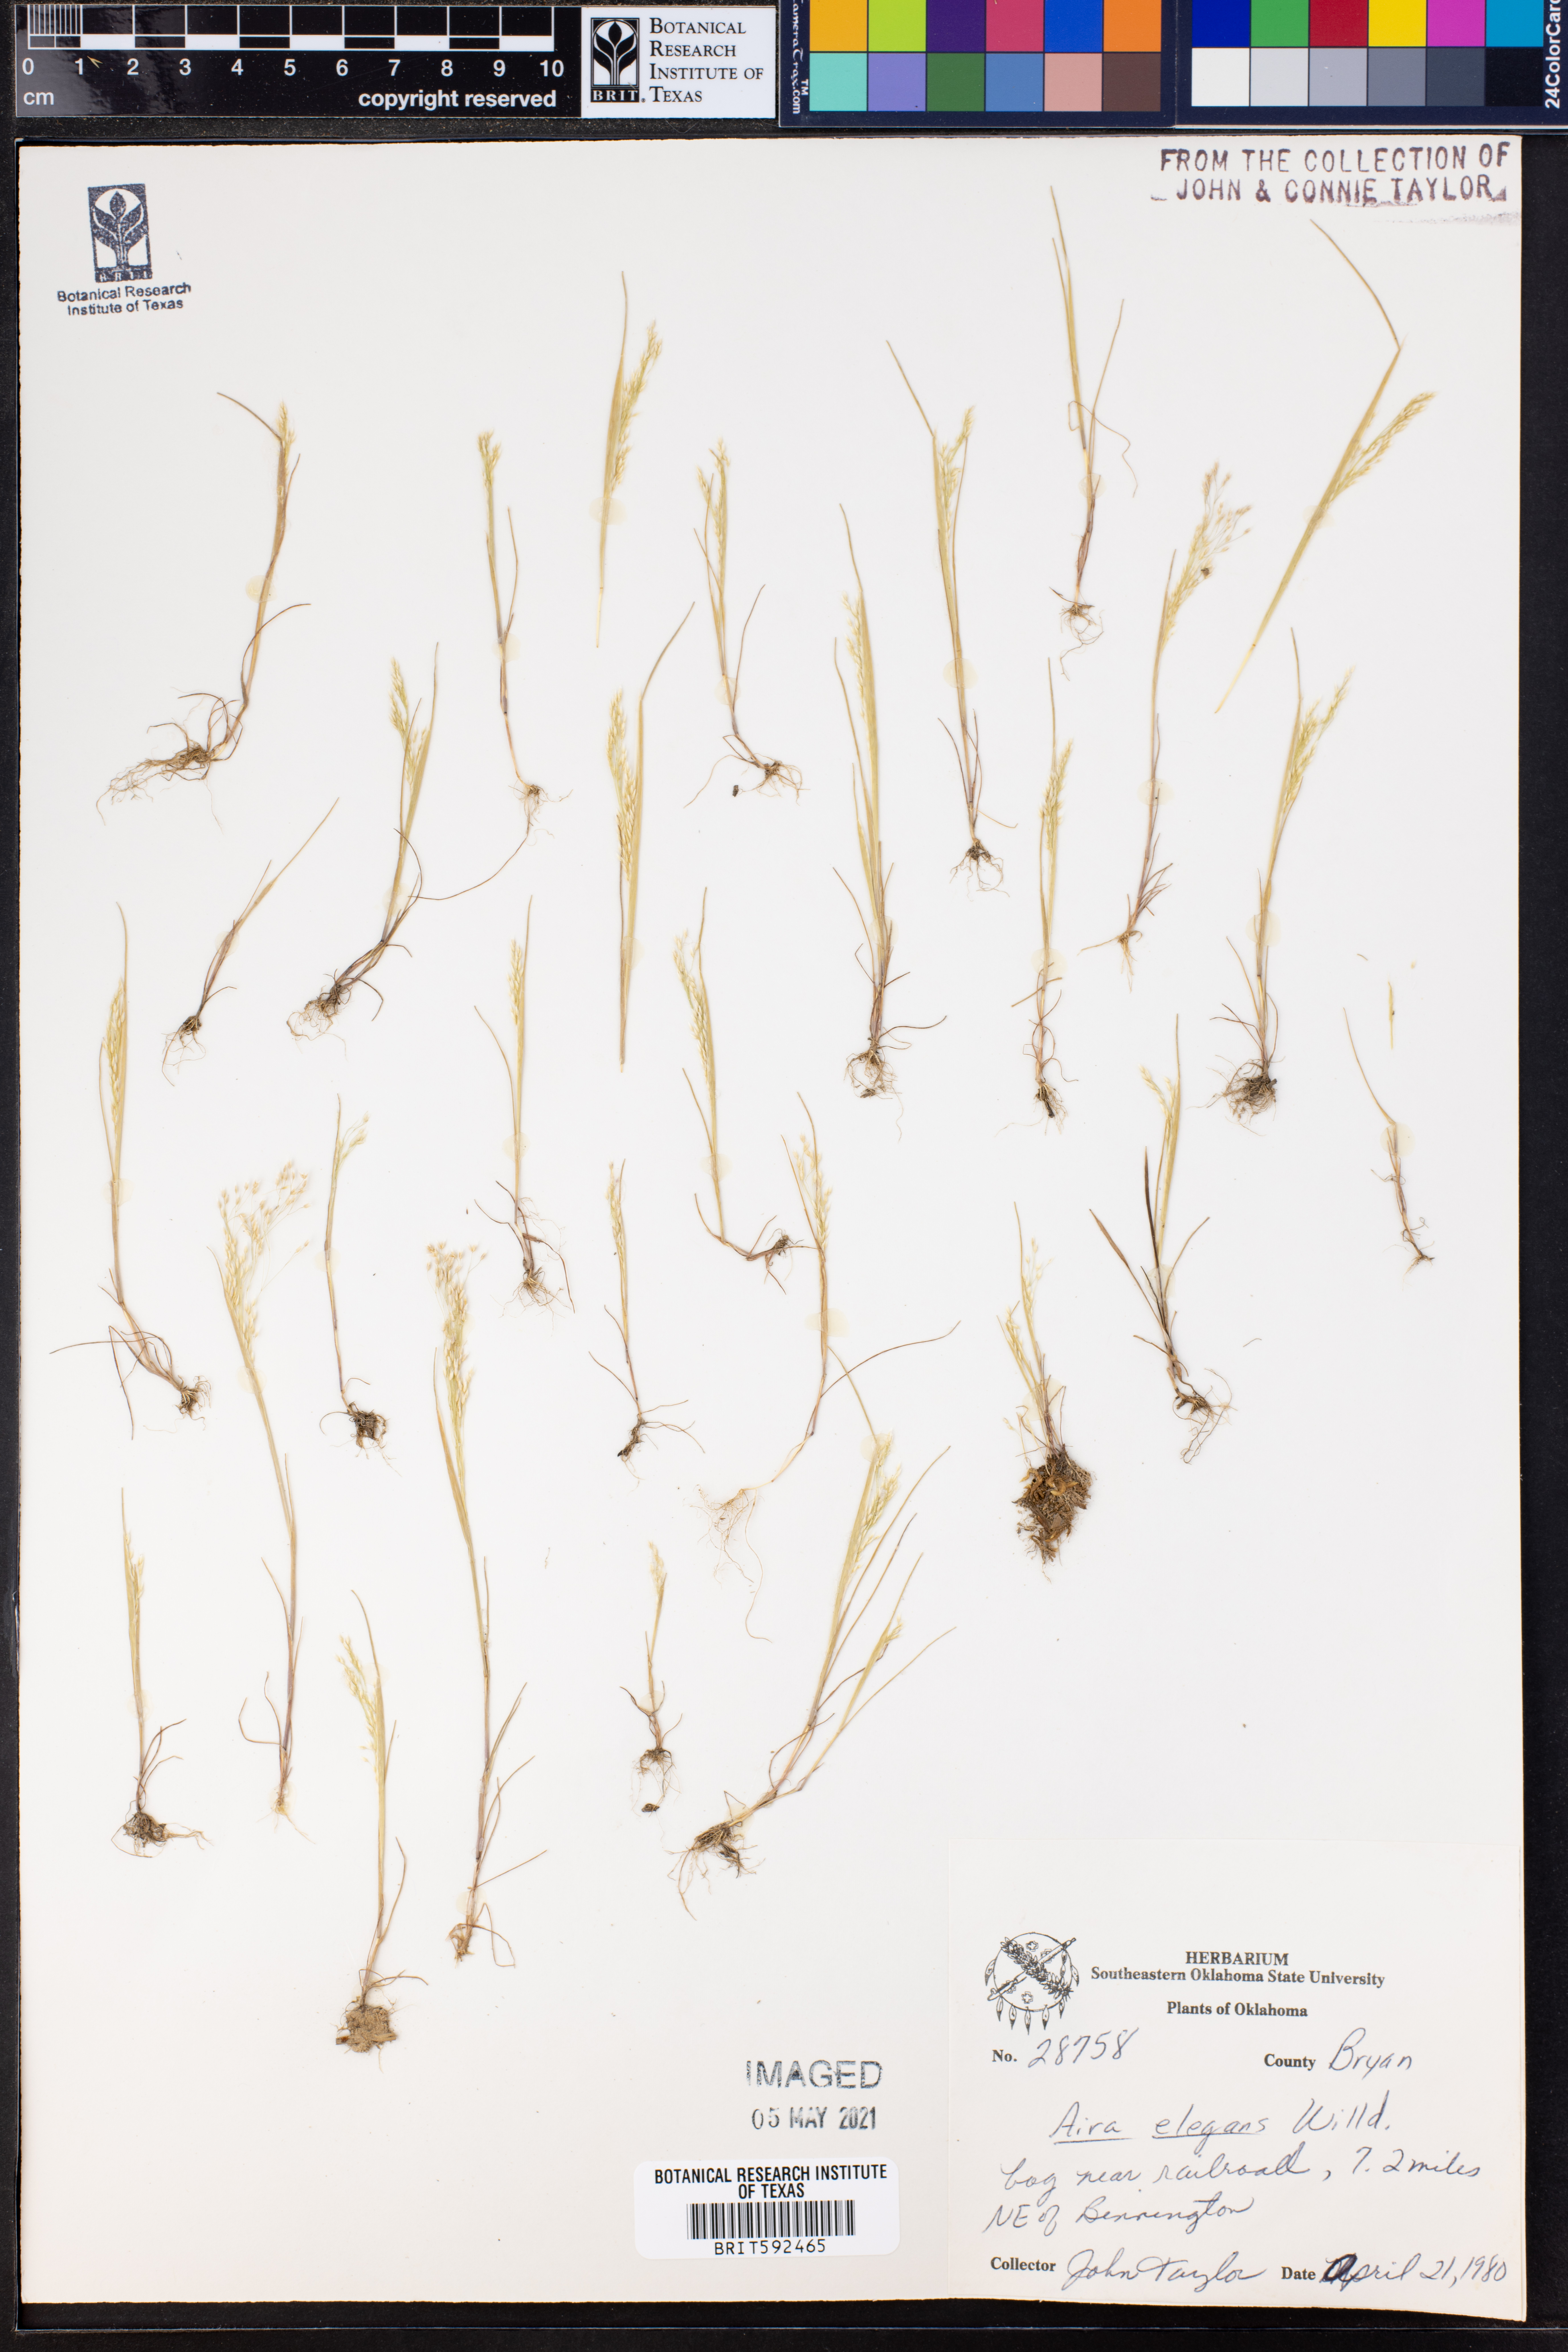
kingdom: Plantae
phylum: Tracheophyta
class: Liliopsida
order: Poales
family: Poaceae
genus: Aira
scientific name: Aira elegans
